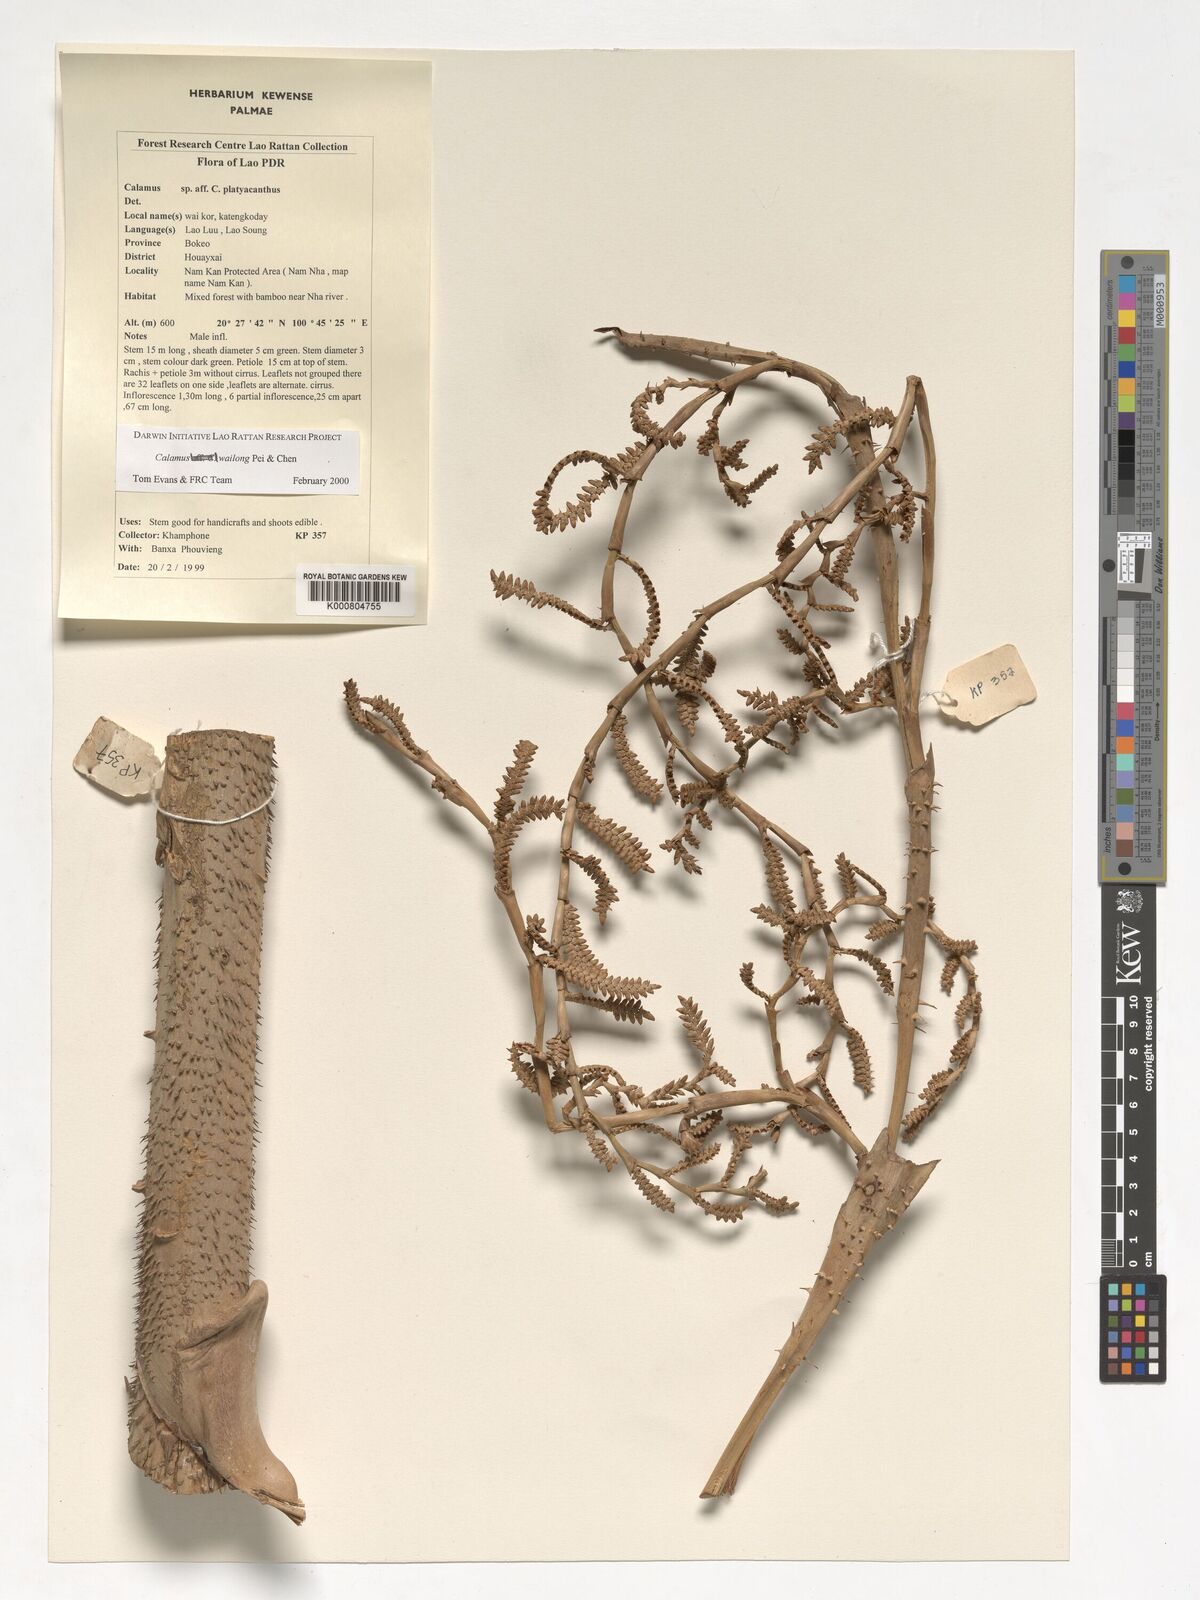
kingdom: Plantae
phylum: Tracheophyta
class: Liliopsida
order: Arecales
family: Arecaceae
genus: Calamus
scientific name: Calamus inermis
